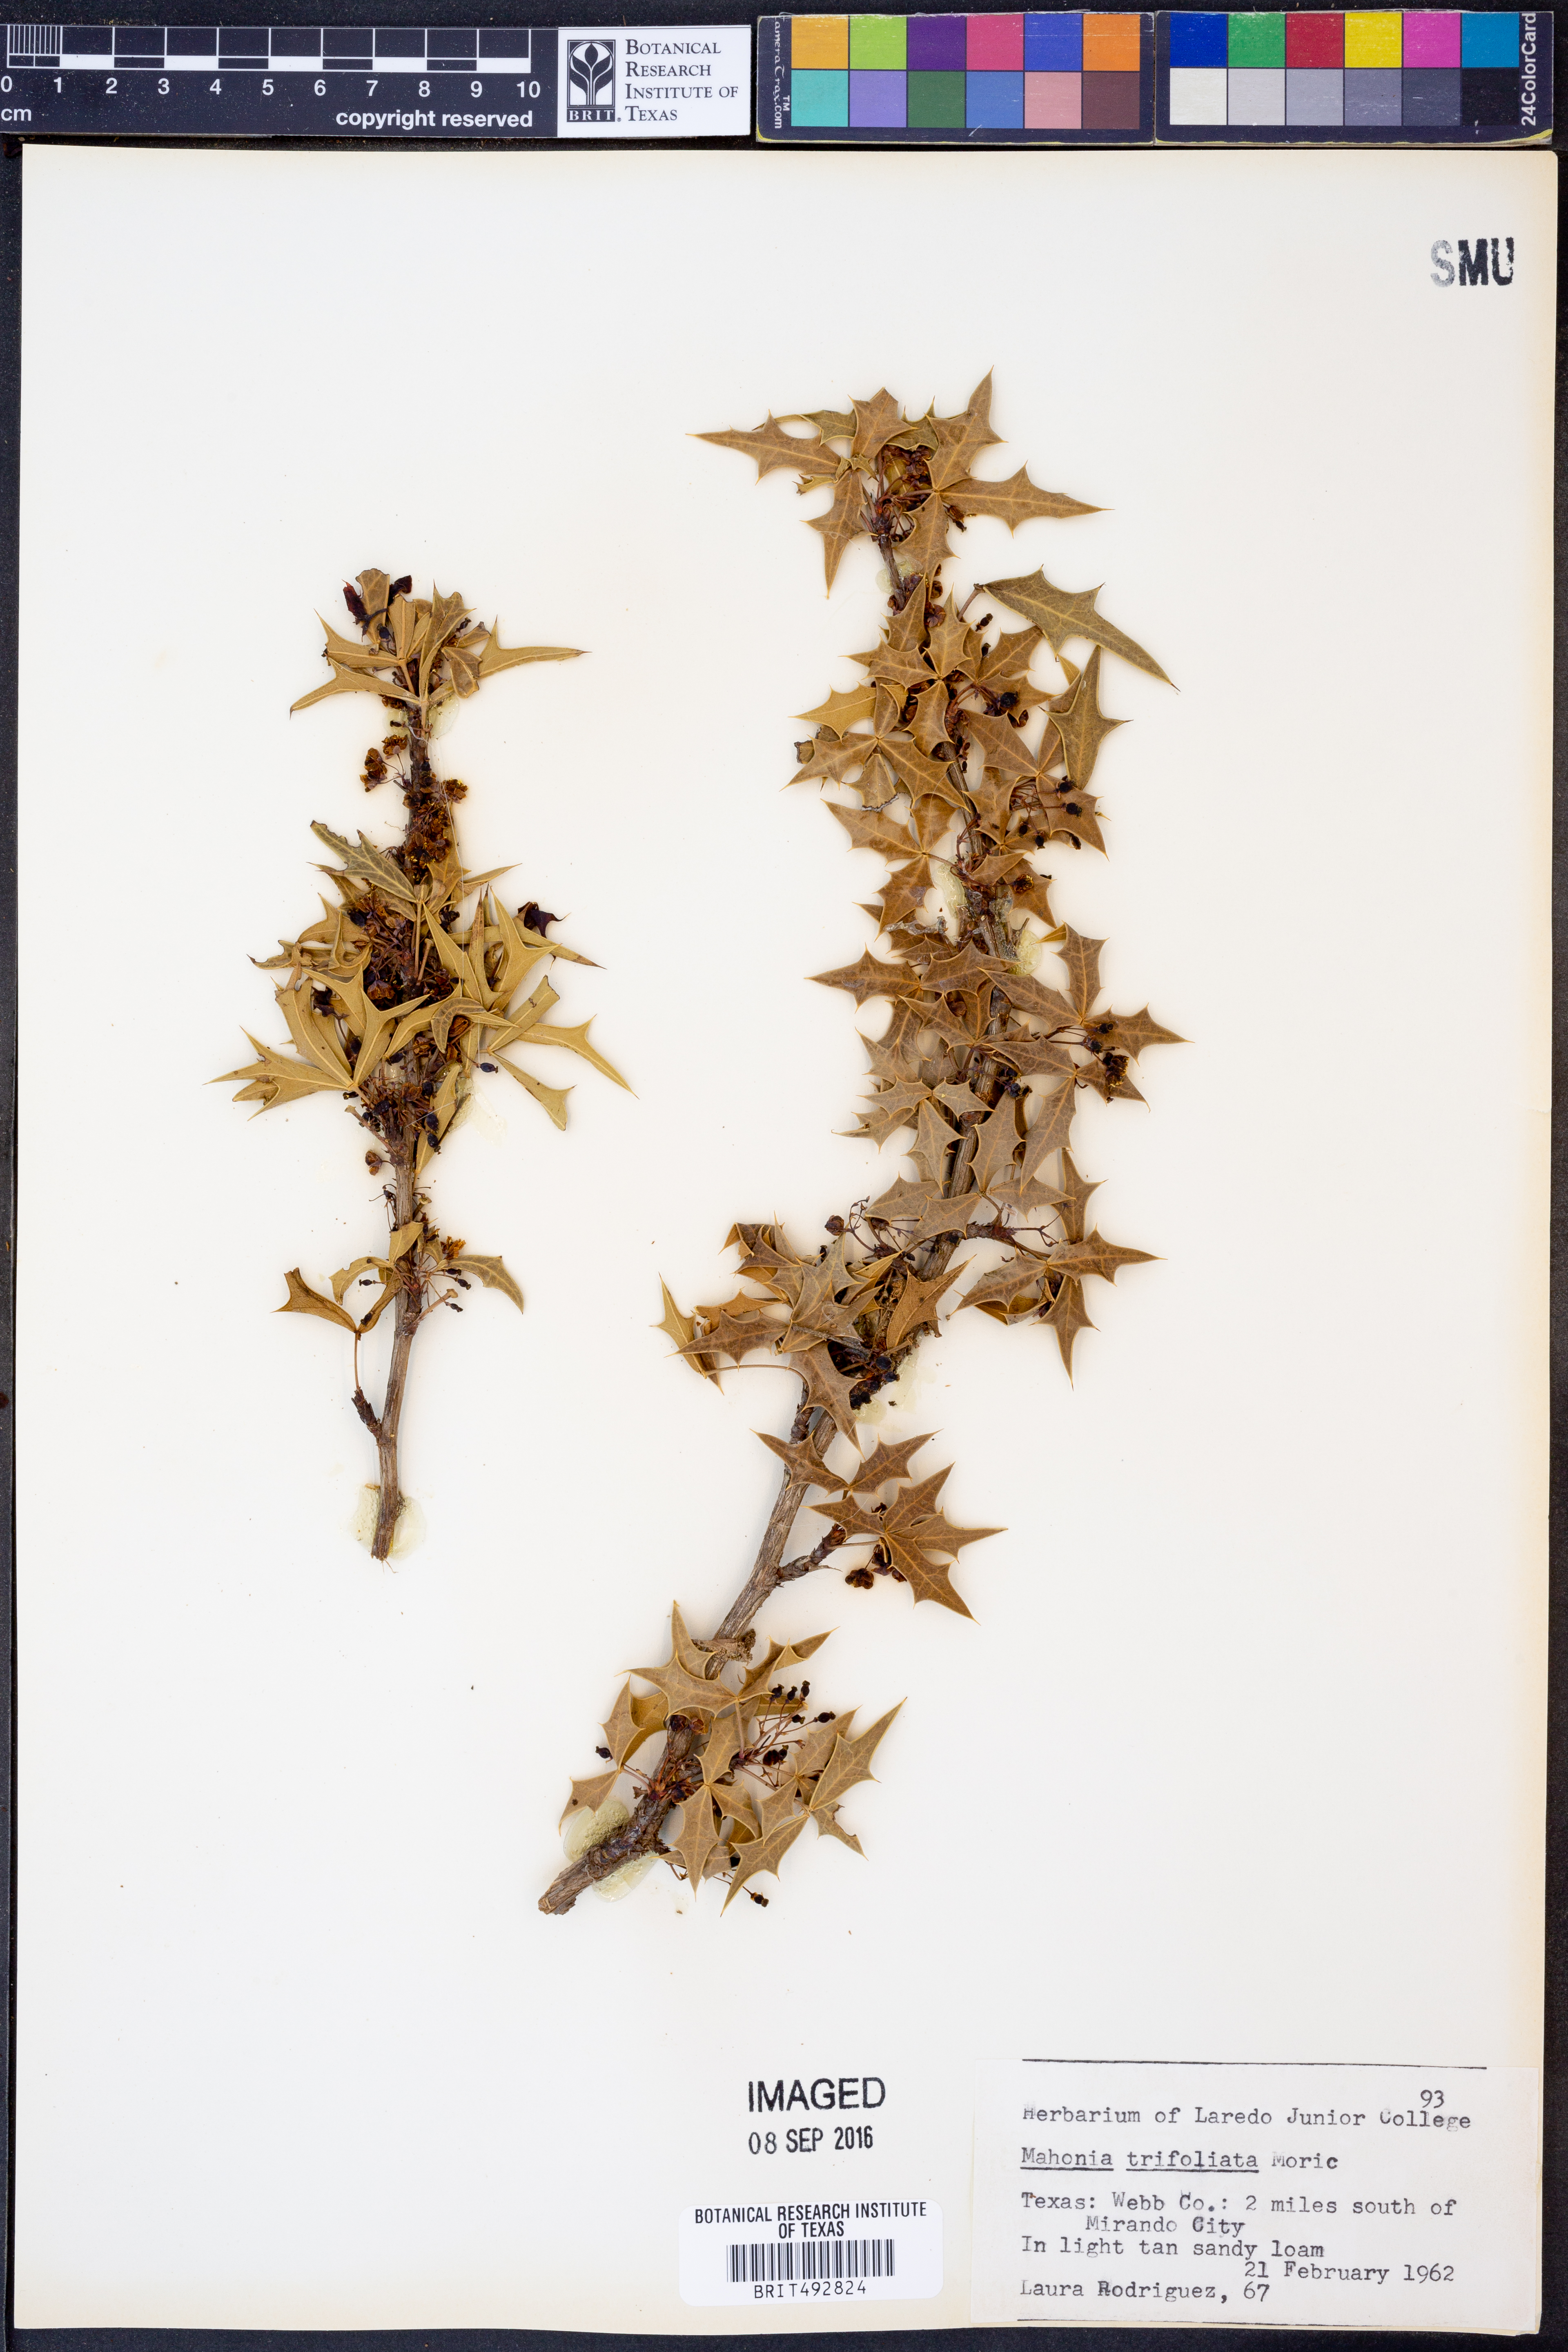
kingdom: Plantae
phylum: Tracheophyta
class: Magnoliopsida
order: Ranunculales
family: Berberidaceae
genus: Mahonia
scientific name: Mahonia trifolia
